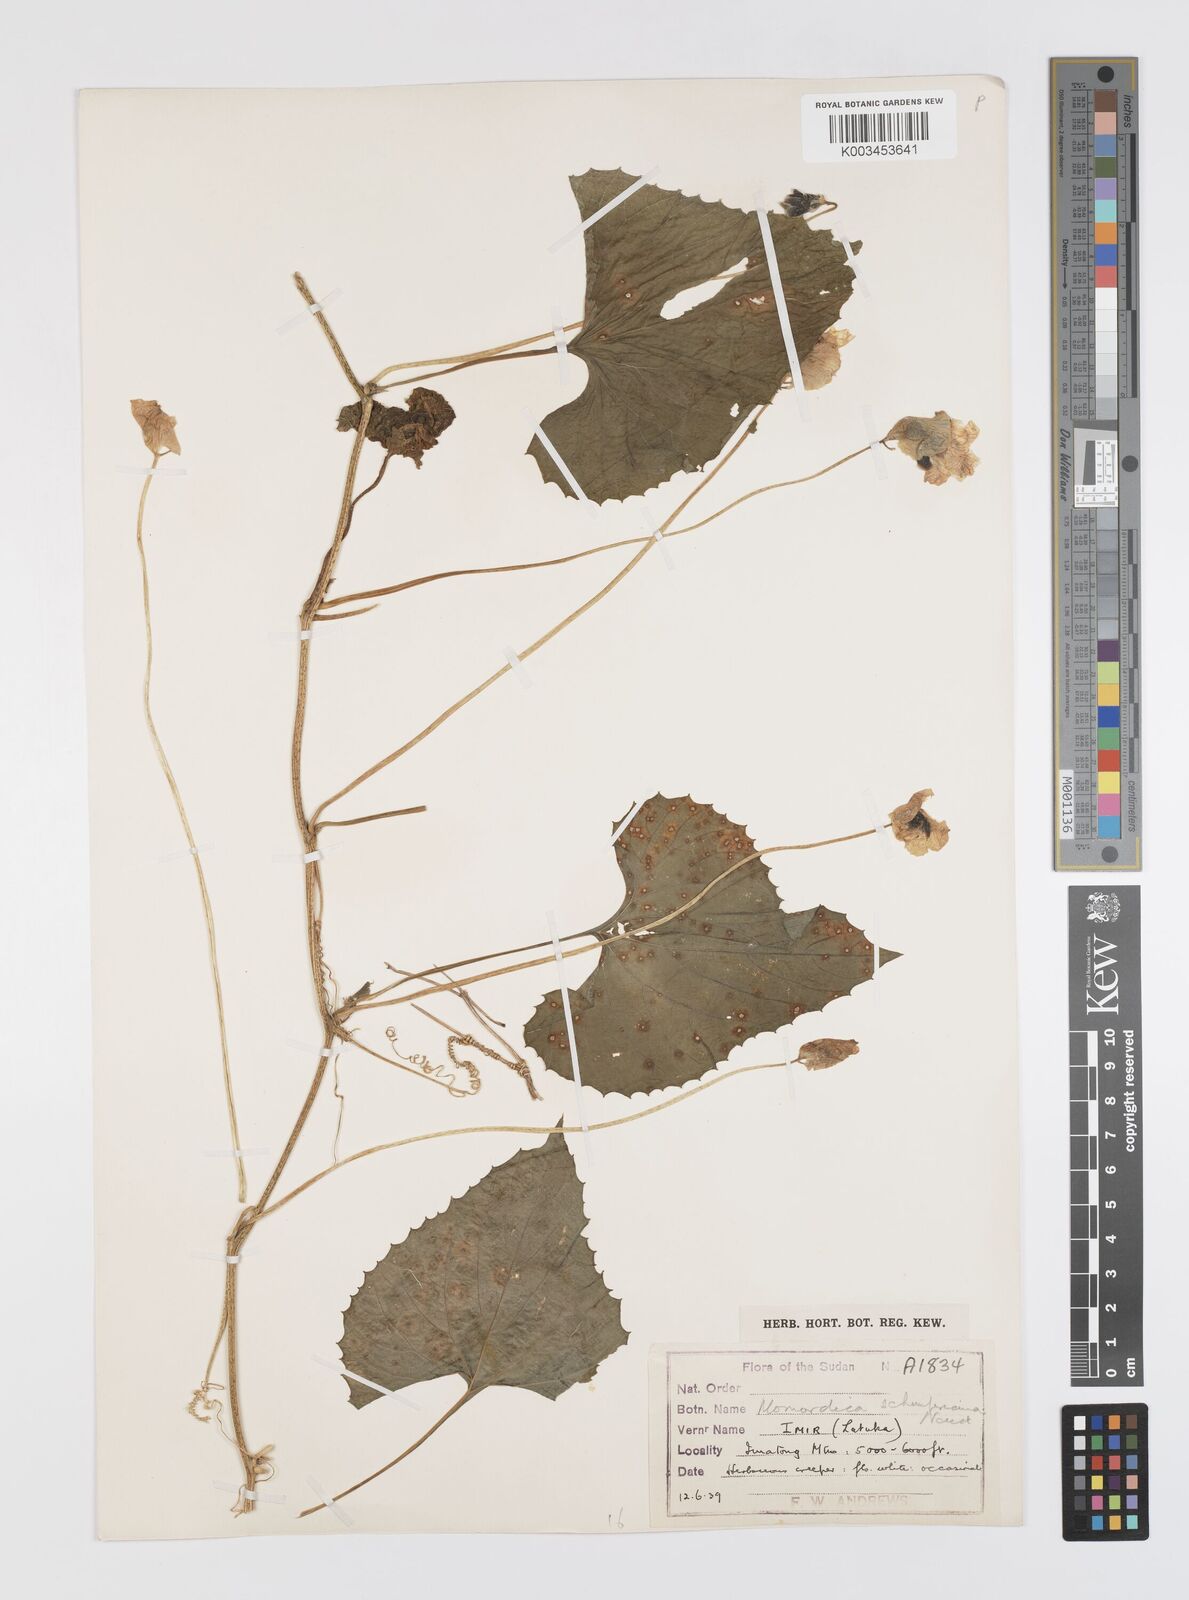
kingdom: Plantae
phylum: Tracheophyta
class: Magnoliopsida
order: Cucurbitales
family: Cucurbitaceae
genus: Momordica
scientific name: Momordica foetida
